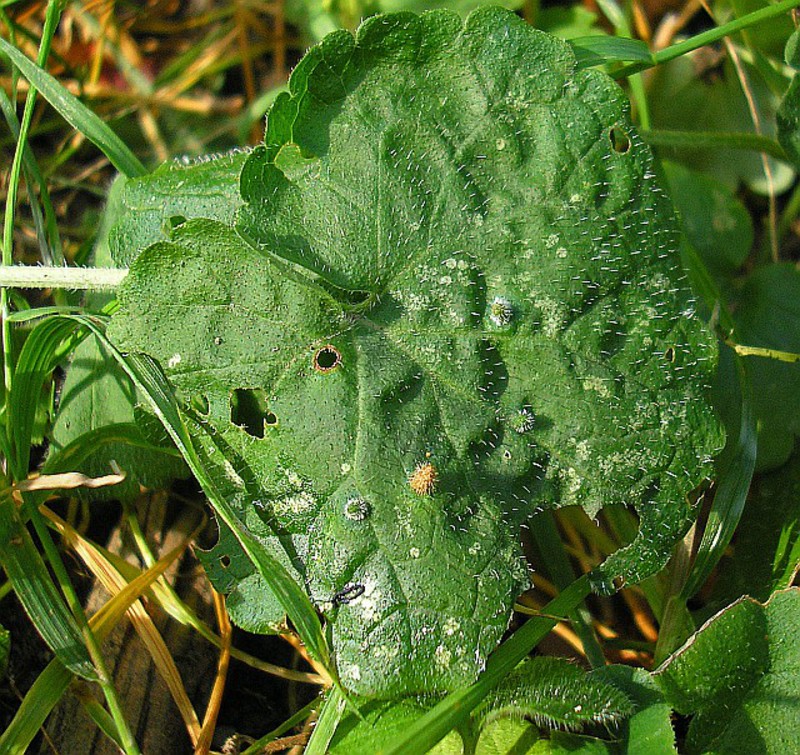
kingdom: Animalia
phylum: Arthropoda
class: Insecta
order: Diptera
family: Cecidomyiidae
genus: Rondaniola
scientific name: Rondaniola bursaria
